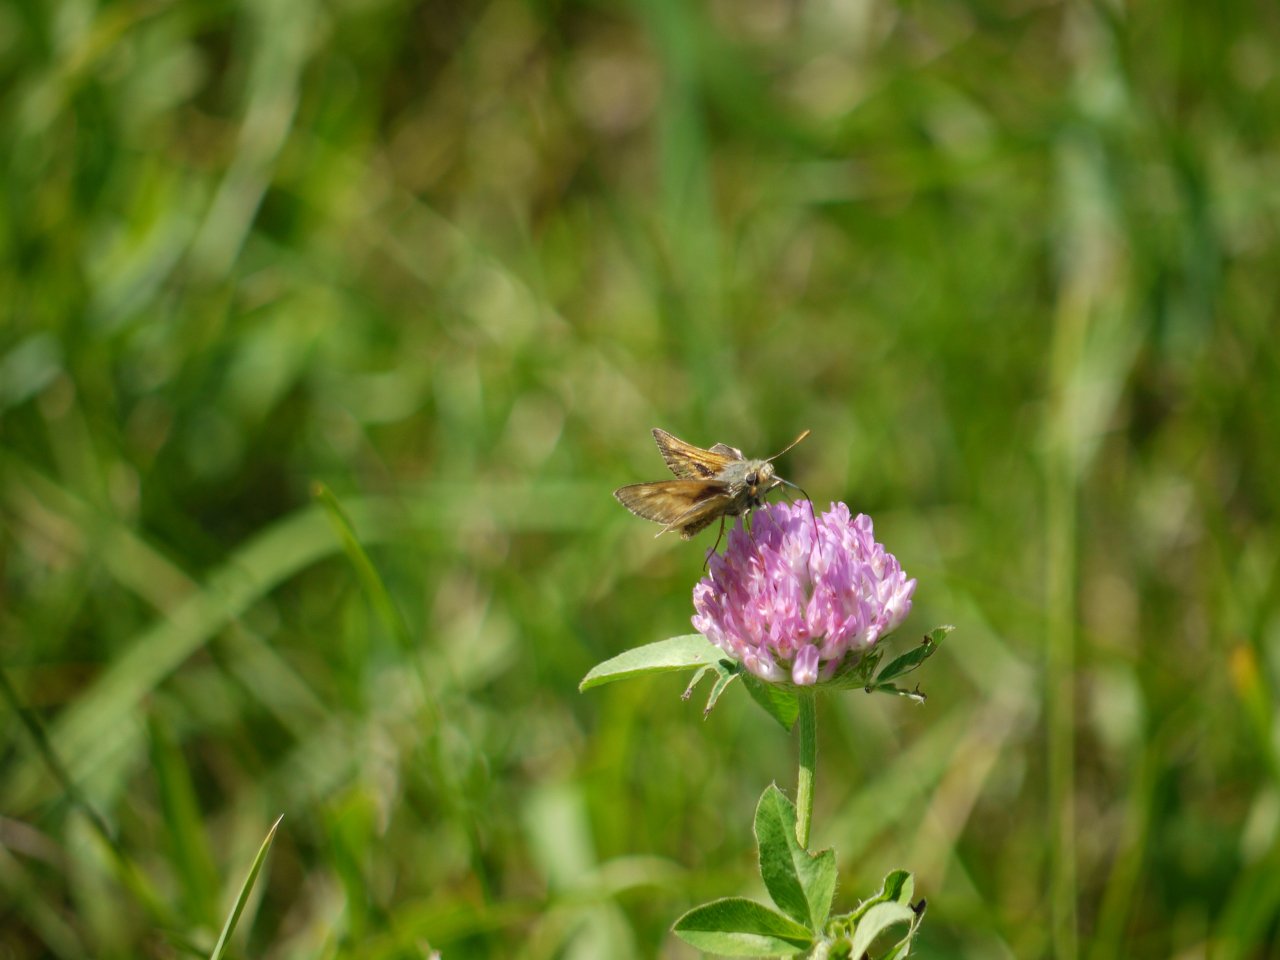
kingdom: Animalia
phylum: Arthropoda
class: Insecta
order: Lepidoptera
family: Hesperiidae
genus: Polites
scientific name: Polites themistocles
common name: Tawny-edged Skipper
